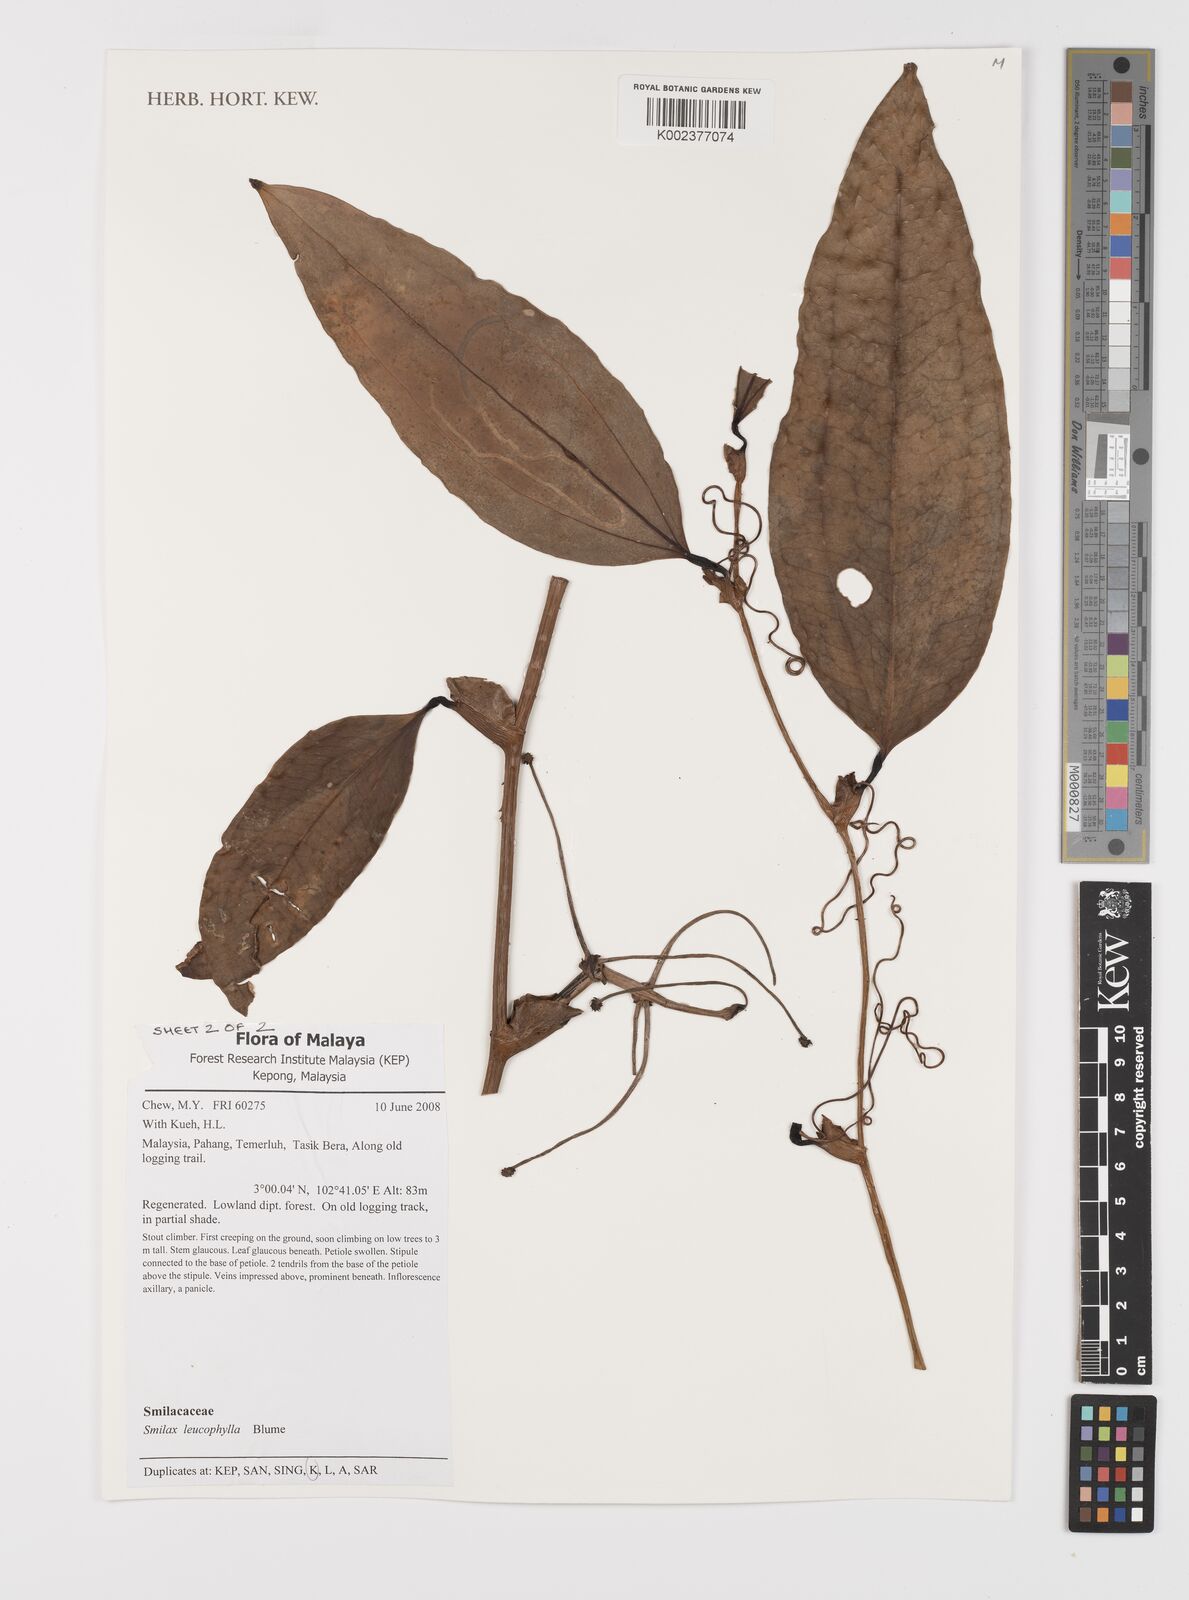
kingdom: Plantae
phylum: Tracheophyta
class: Liliopsida
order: Liliales
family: Smilacaceae
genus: Smilax
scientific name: Smilax leucophylla
